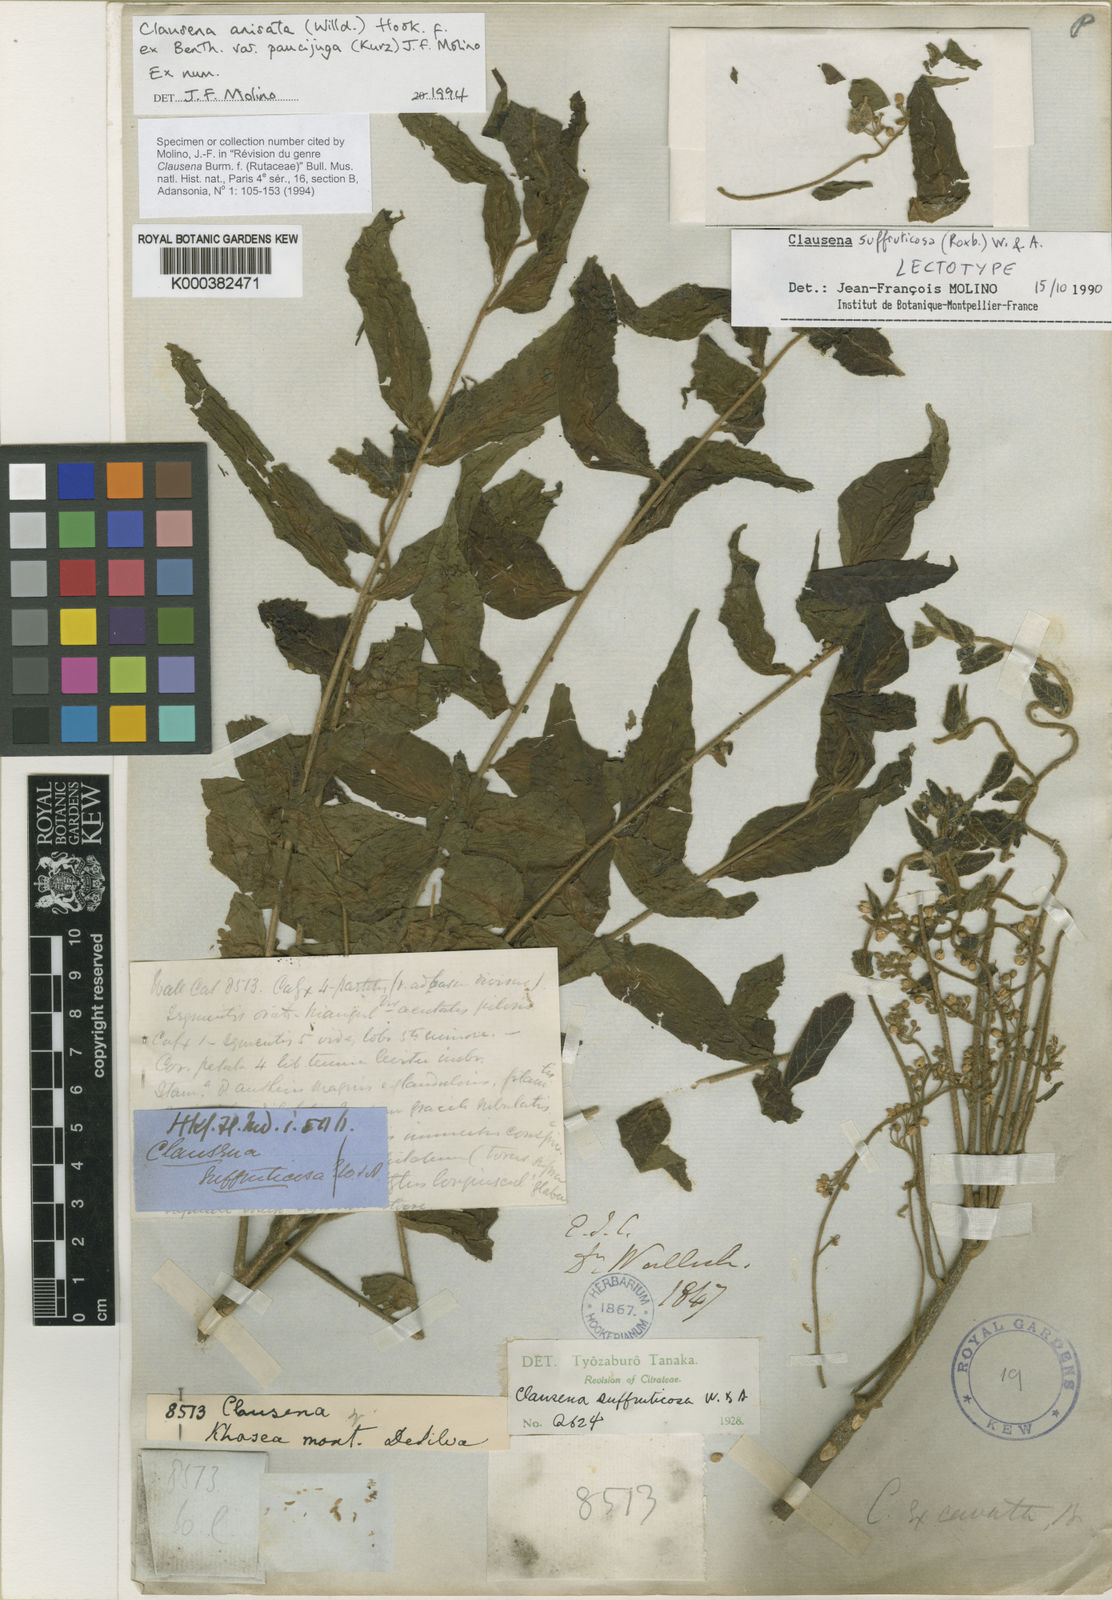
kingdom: Plantae
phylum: Tracheophyta
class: Magnoliopsida
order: Sapindales
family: Rutaceae
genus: Clausena
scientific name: Clausena anisata
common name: Horsewood
